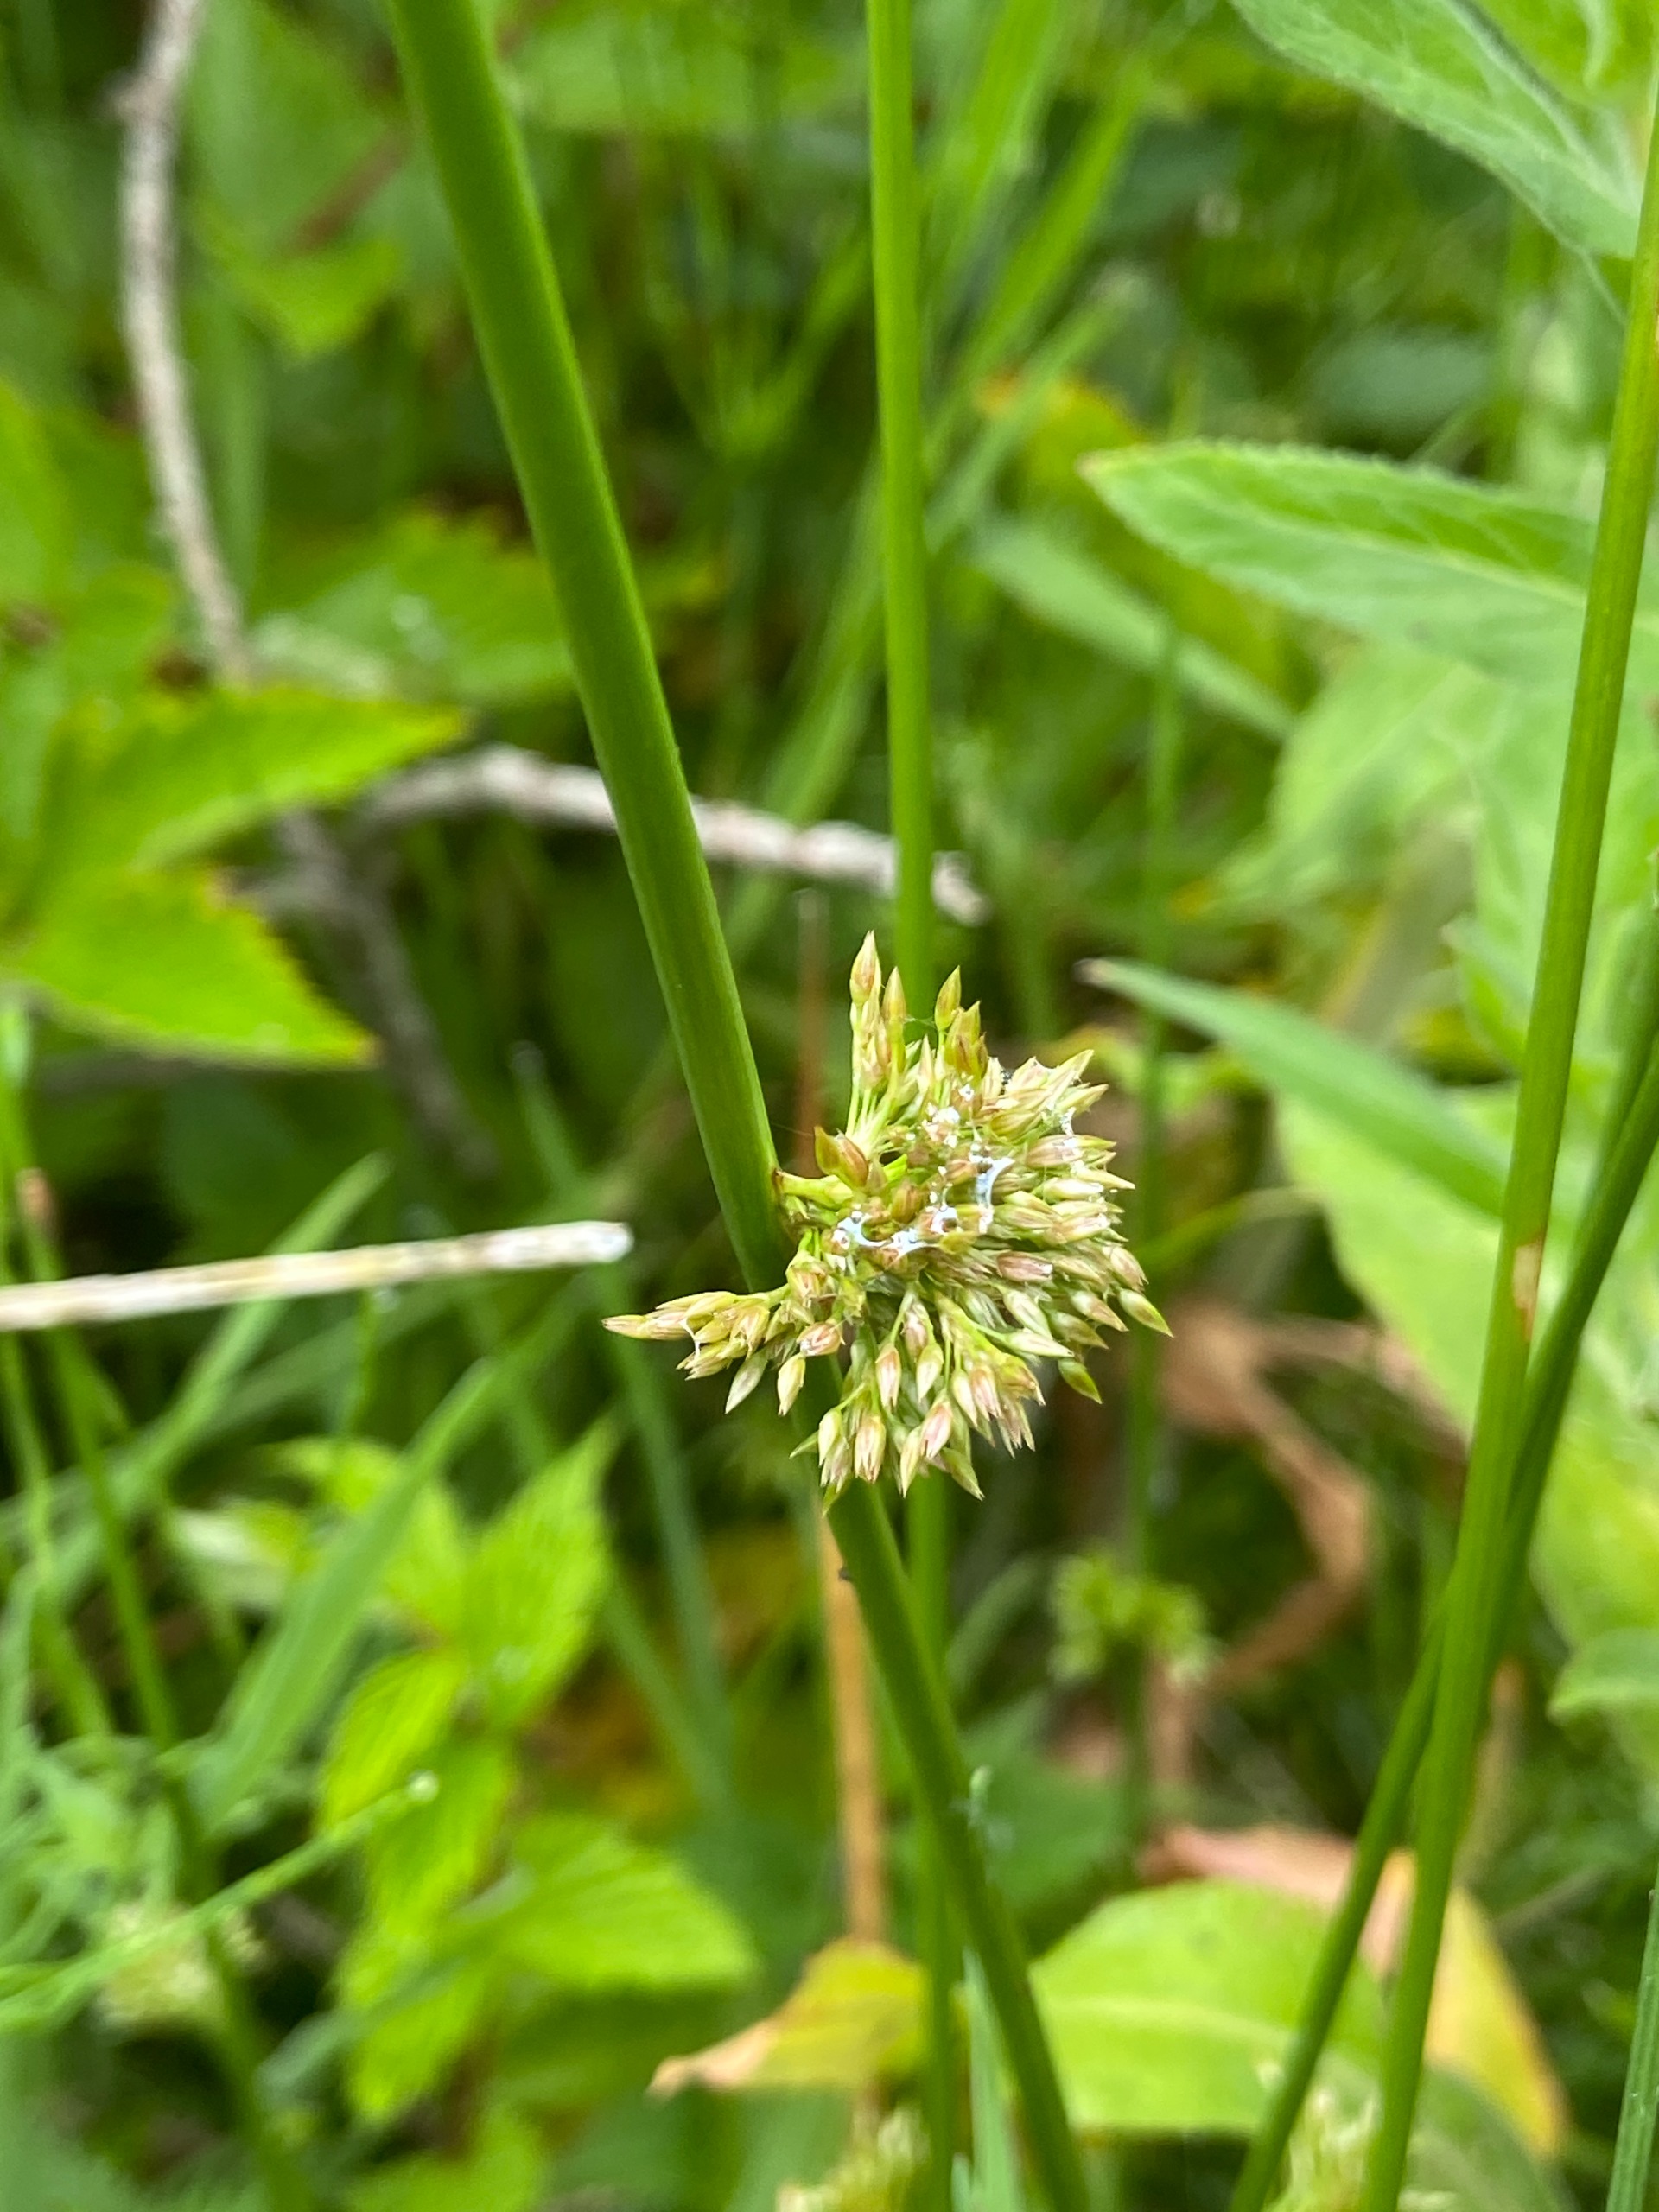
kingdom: Plantae
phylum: Tracheophyta
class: Liliopsida
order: Poales
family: Juncaceae
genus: Juncus
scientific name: Juncus effusus
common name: Lyse-siv
